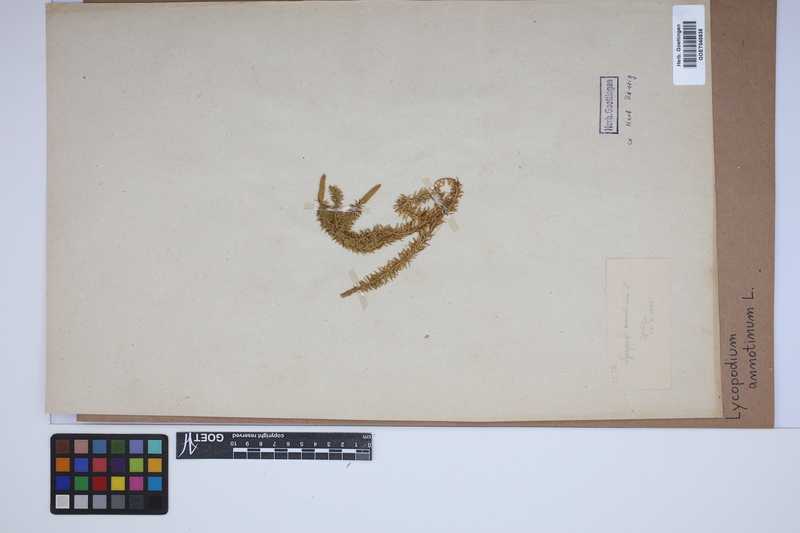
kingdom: Plantae
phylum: Tracheophyta
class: Lycopodiopsida
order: Lycopodiales
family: Lycopodiaceae
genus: Spinulum
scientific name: Spinulum annotinum
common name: Interrupted club-moss
